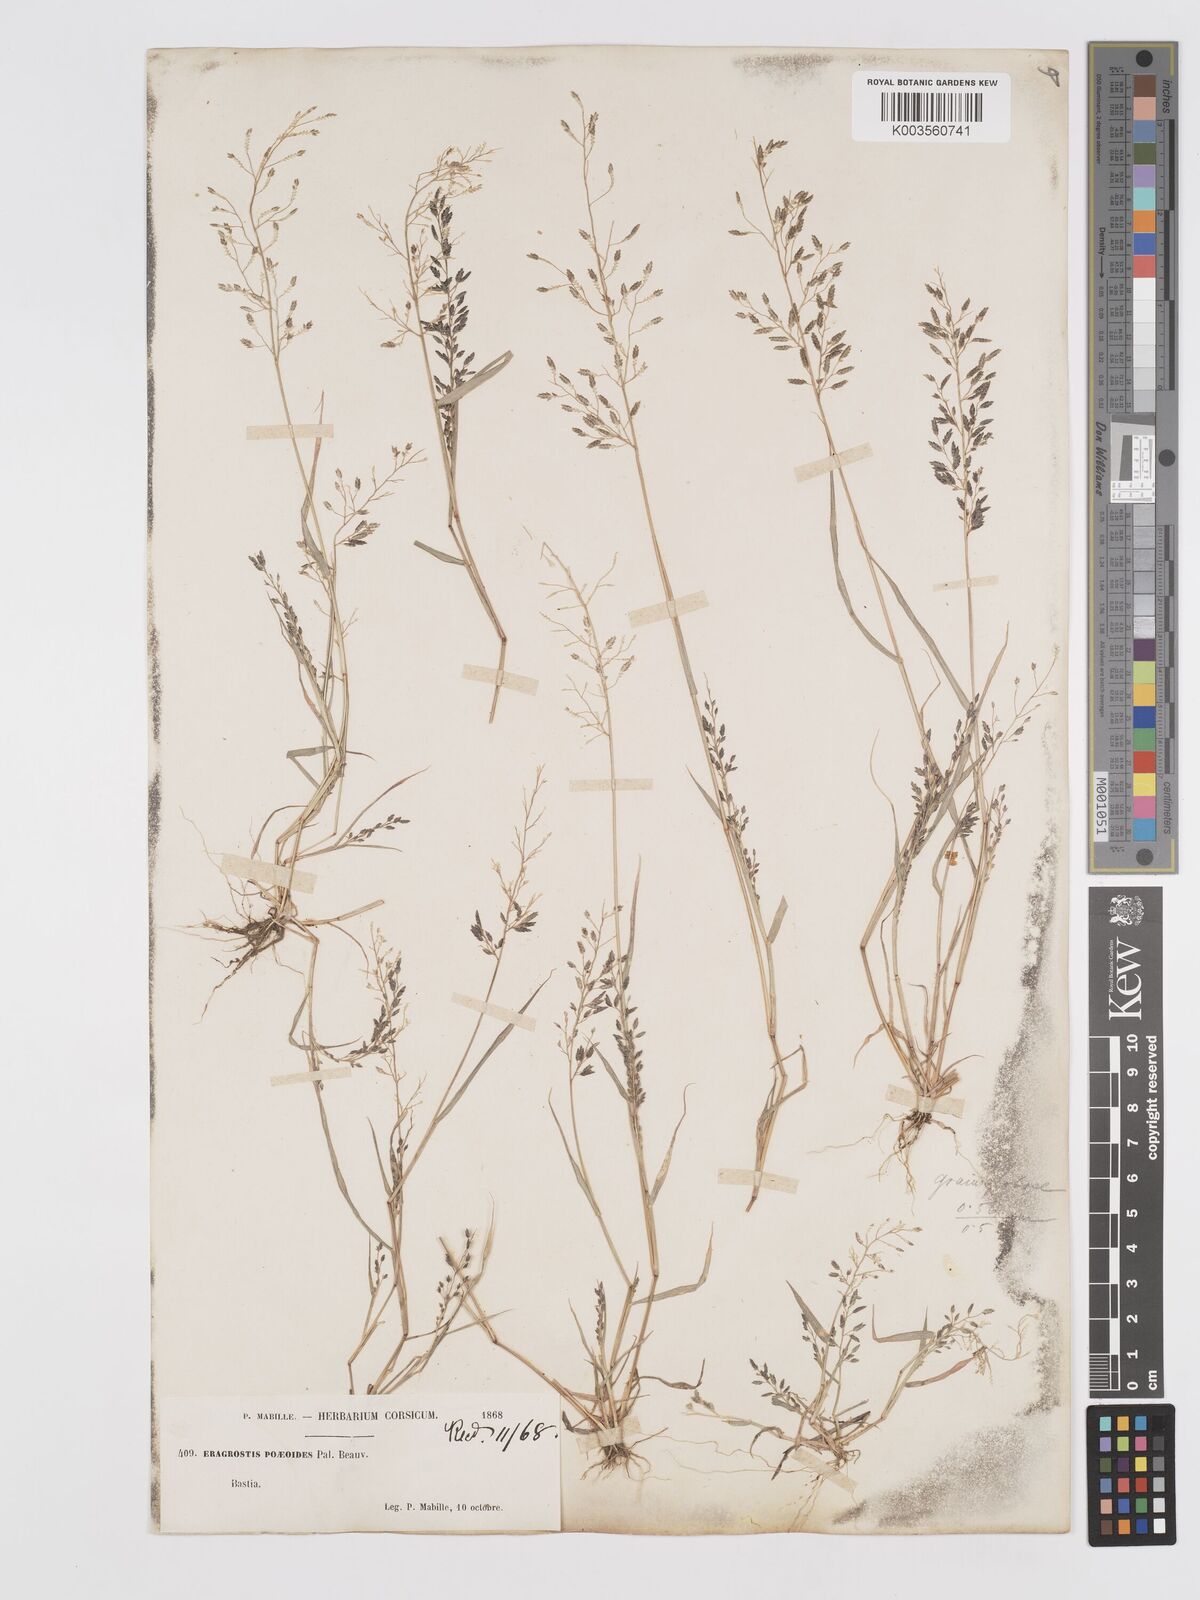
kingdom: Plantae
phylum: Tracheophyta
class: Liliopsida
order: Poales
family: Poaceae
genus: Eragrostis
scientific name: Eragrostis minor
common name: Small love-grass
